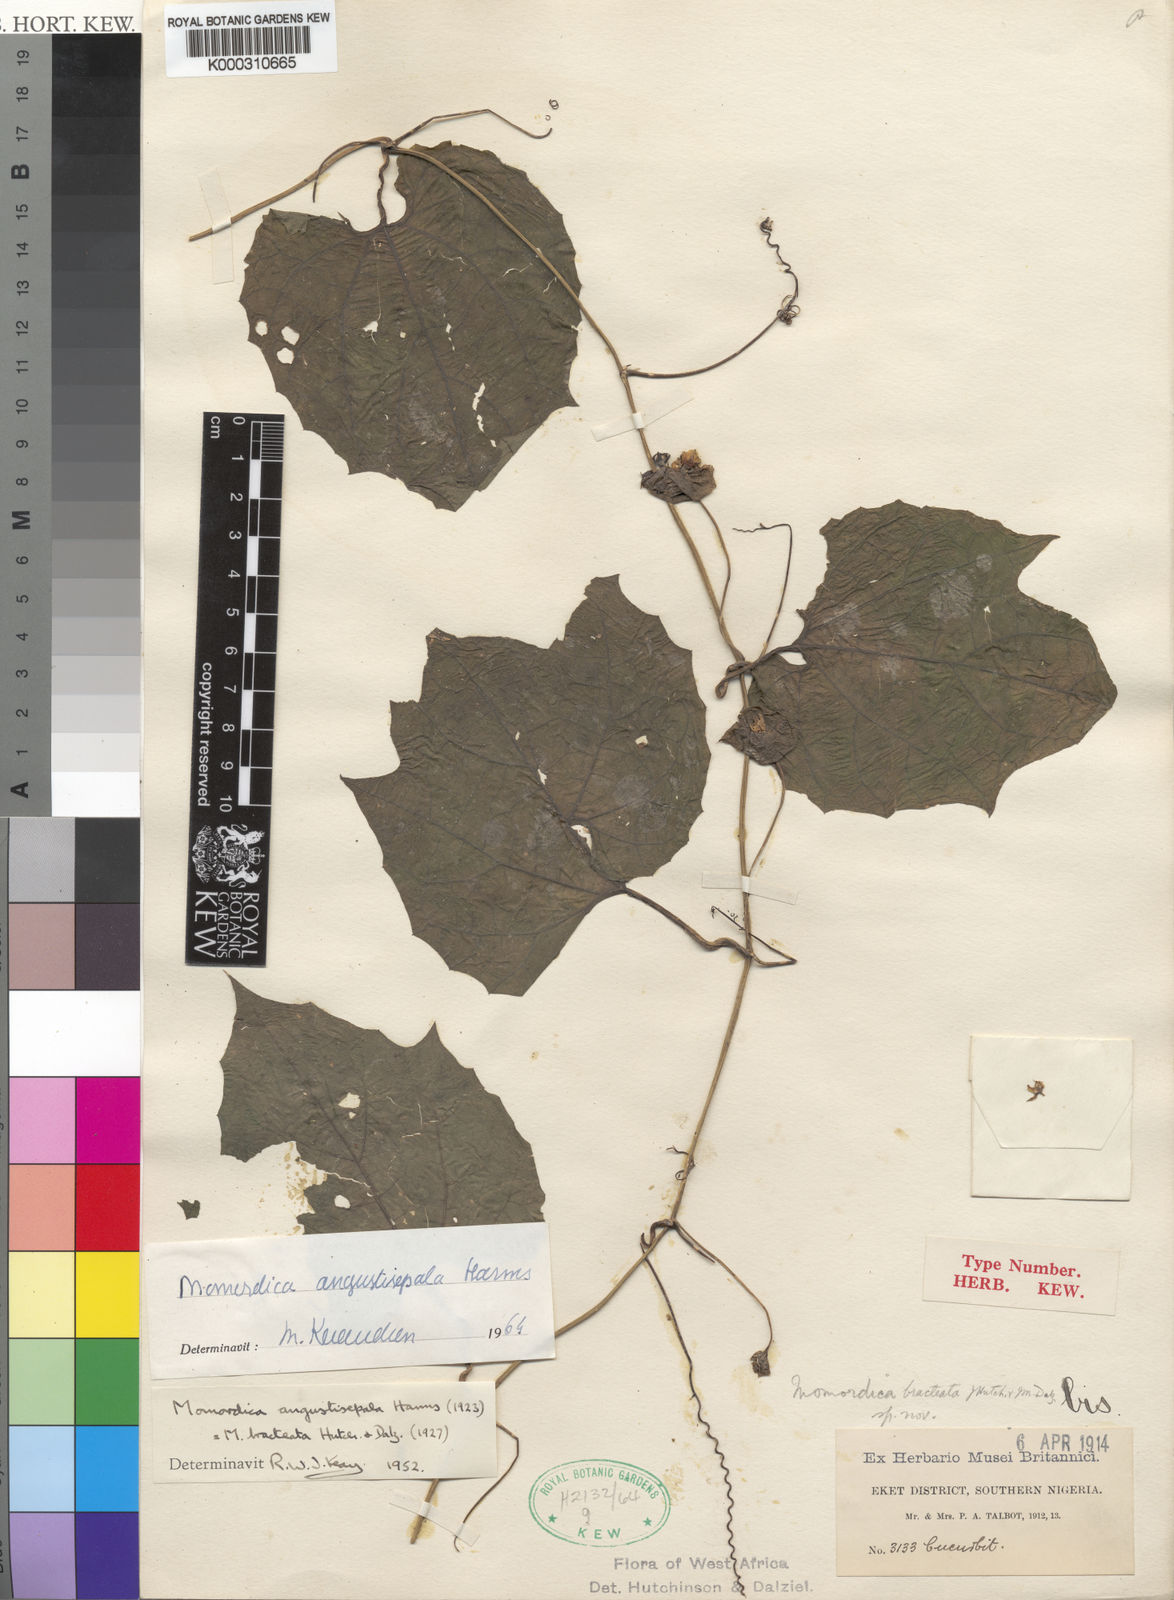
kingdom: Plantae
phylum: Tracheophyta
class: Magnoliopsida
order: Cucurbitales
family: Cucurbitaceae
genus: Momordica
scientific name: Momordica angustisepala
